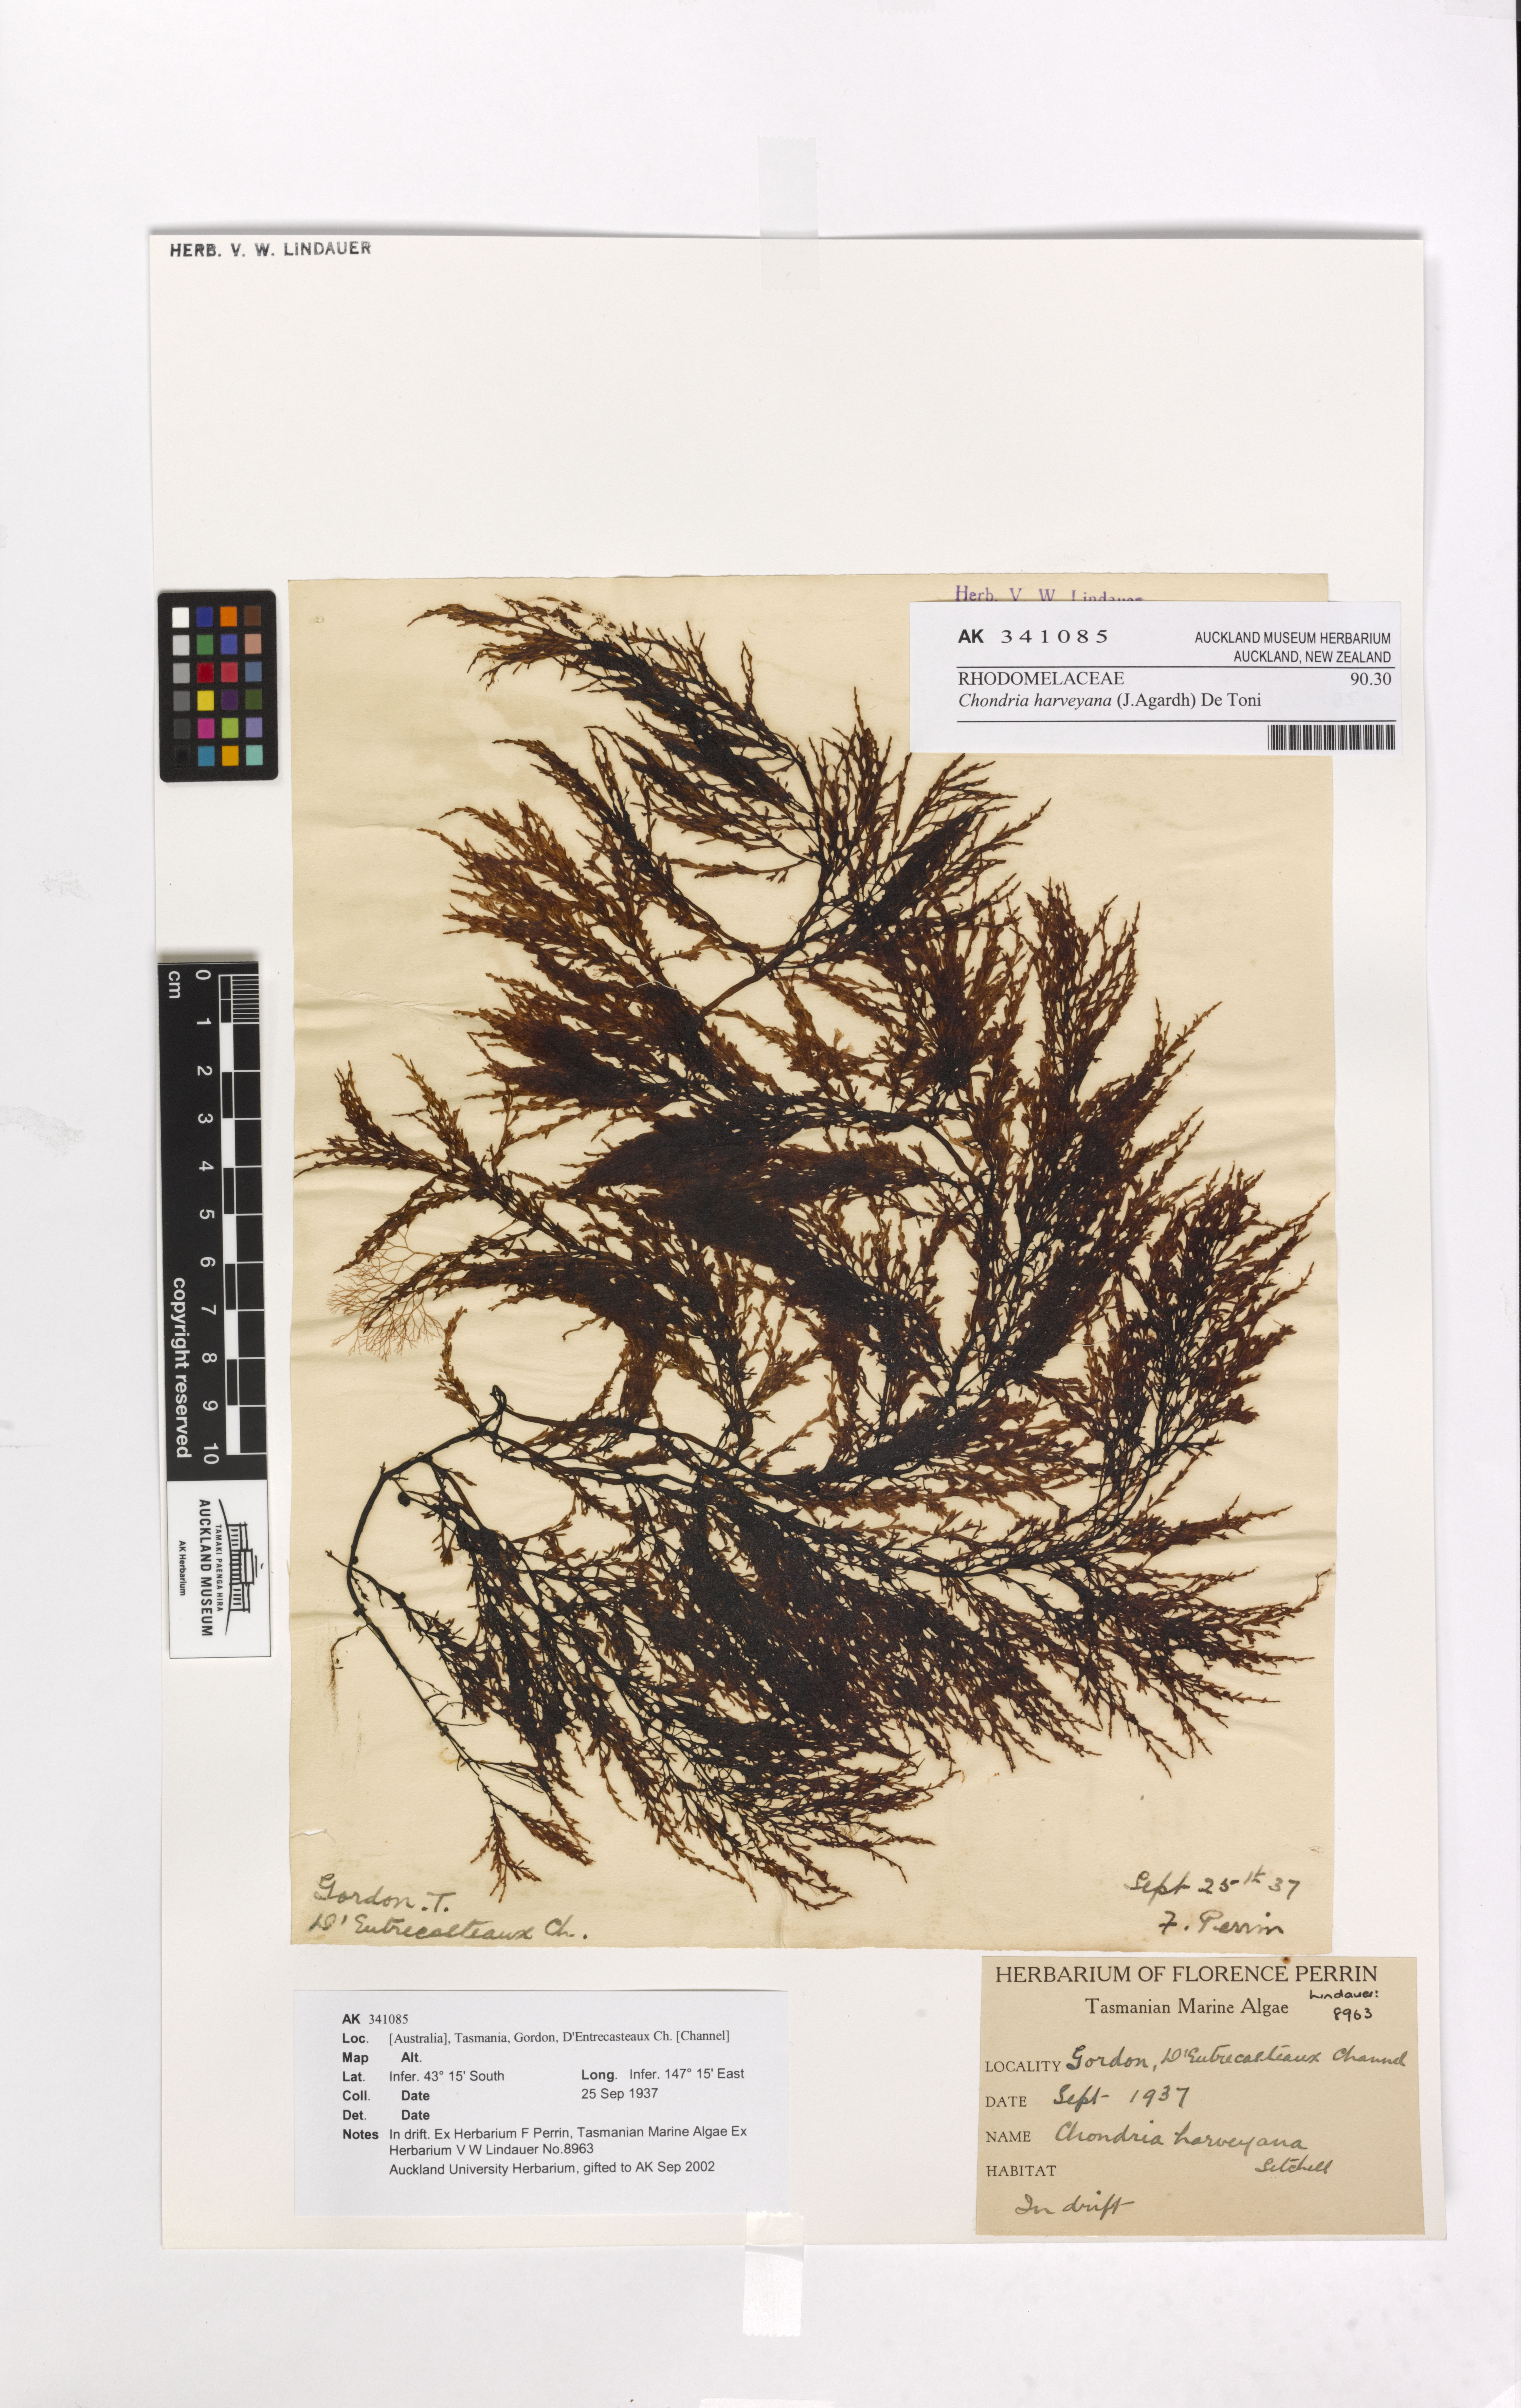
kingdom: Plantae
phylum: Rhodophyta
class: Florideophyceae
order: Ceramiales
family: Rhodomelaceae
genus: Chondria
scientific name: Chondria harveyana
